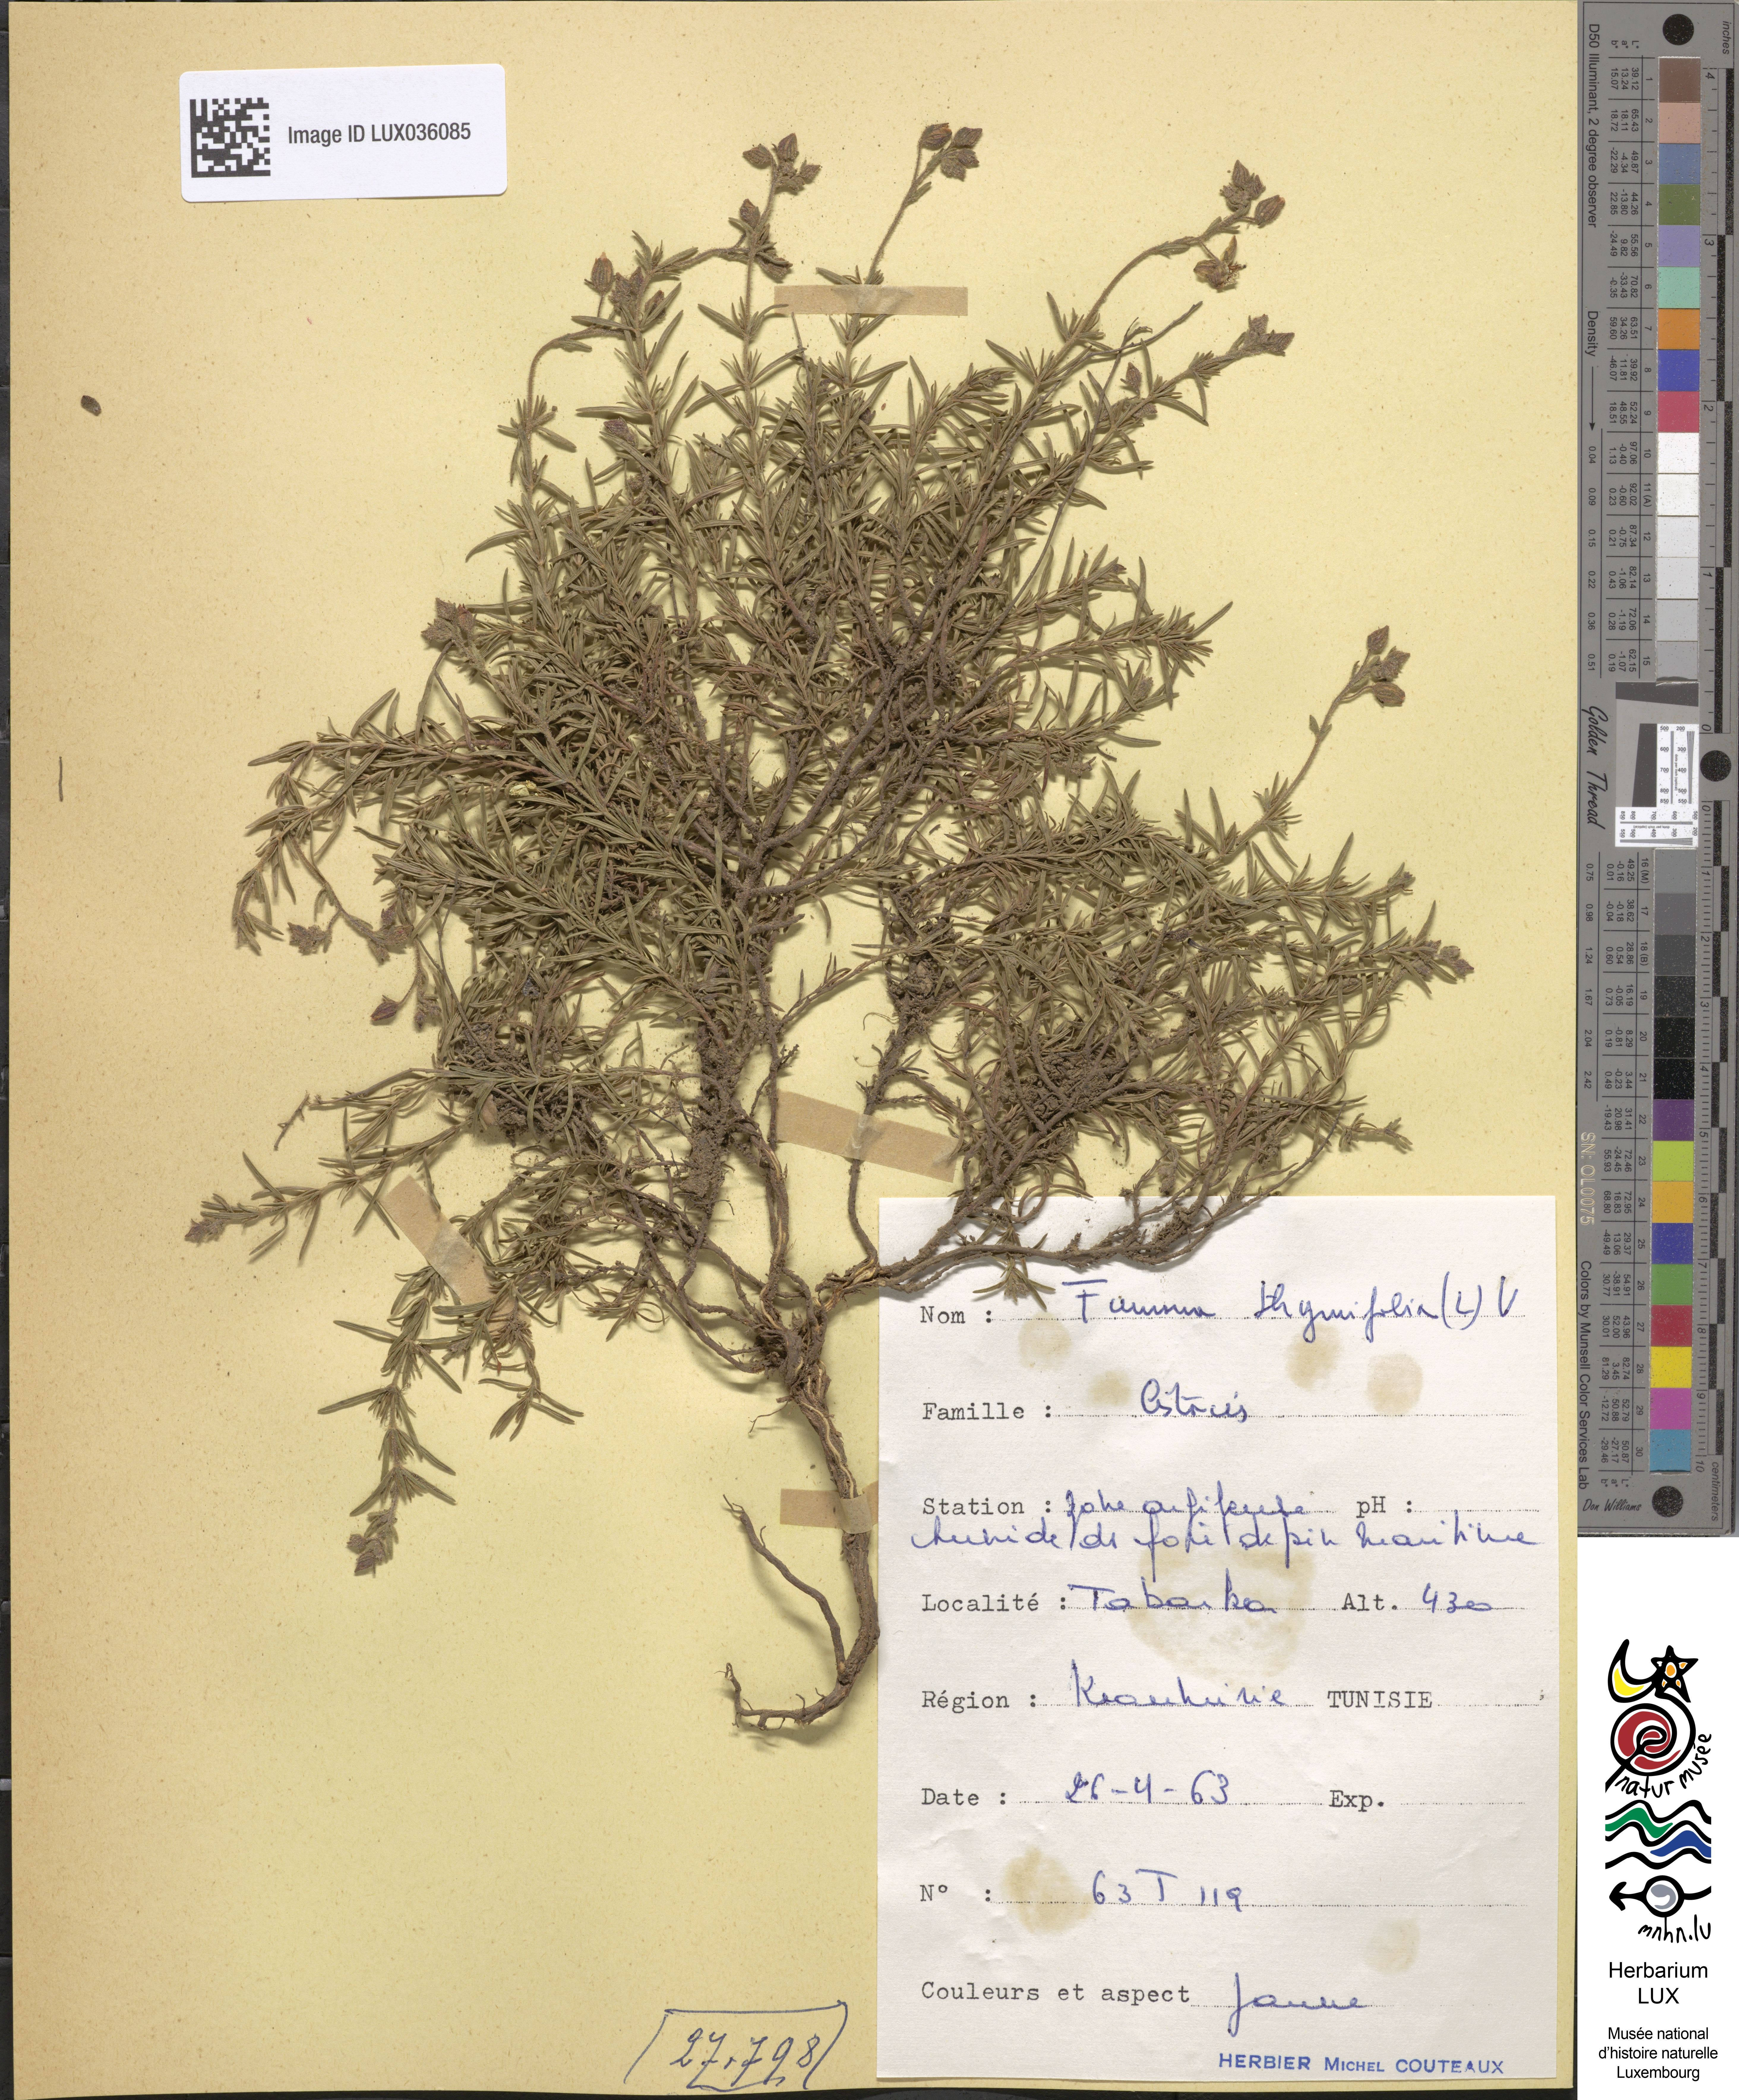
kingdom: Plantae
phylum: Tracheophyta
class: Magnoliopsida
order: Malvales
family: Cistaceae
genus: Fumana
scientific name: Fumana thymifolia
